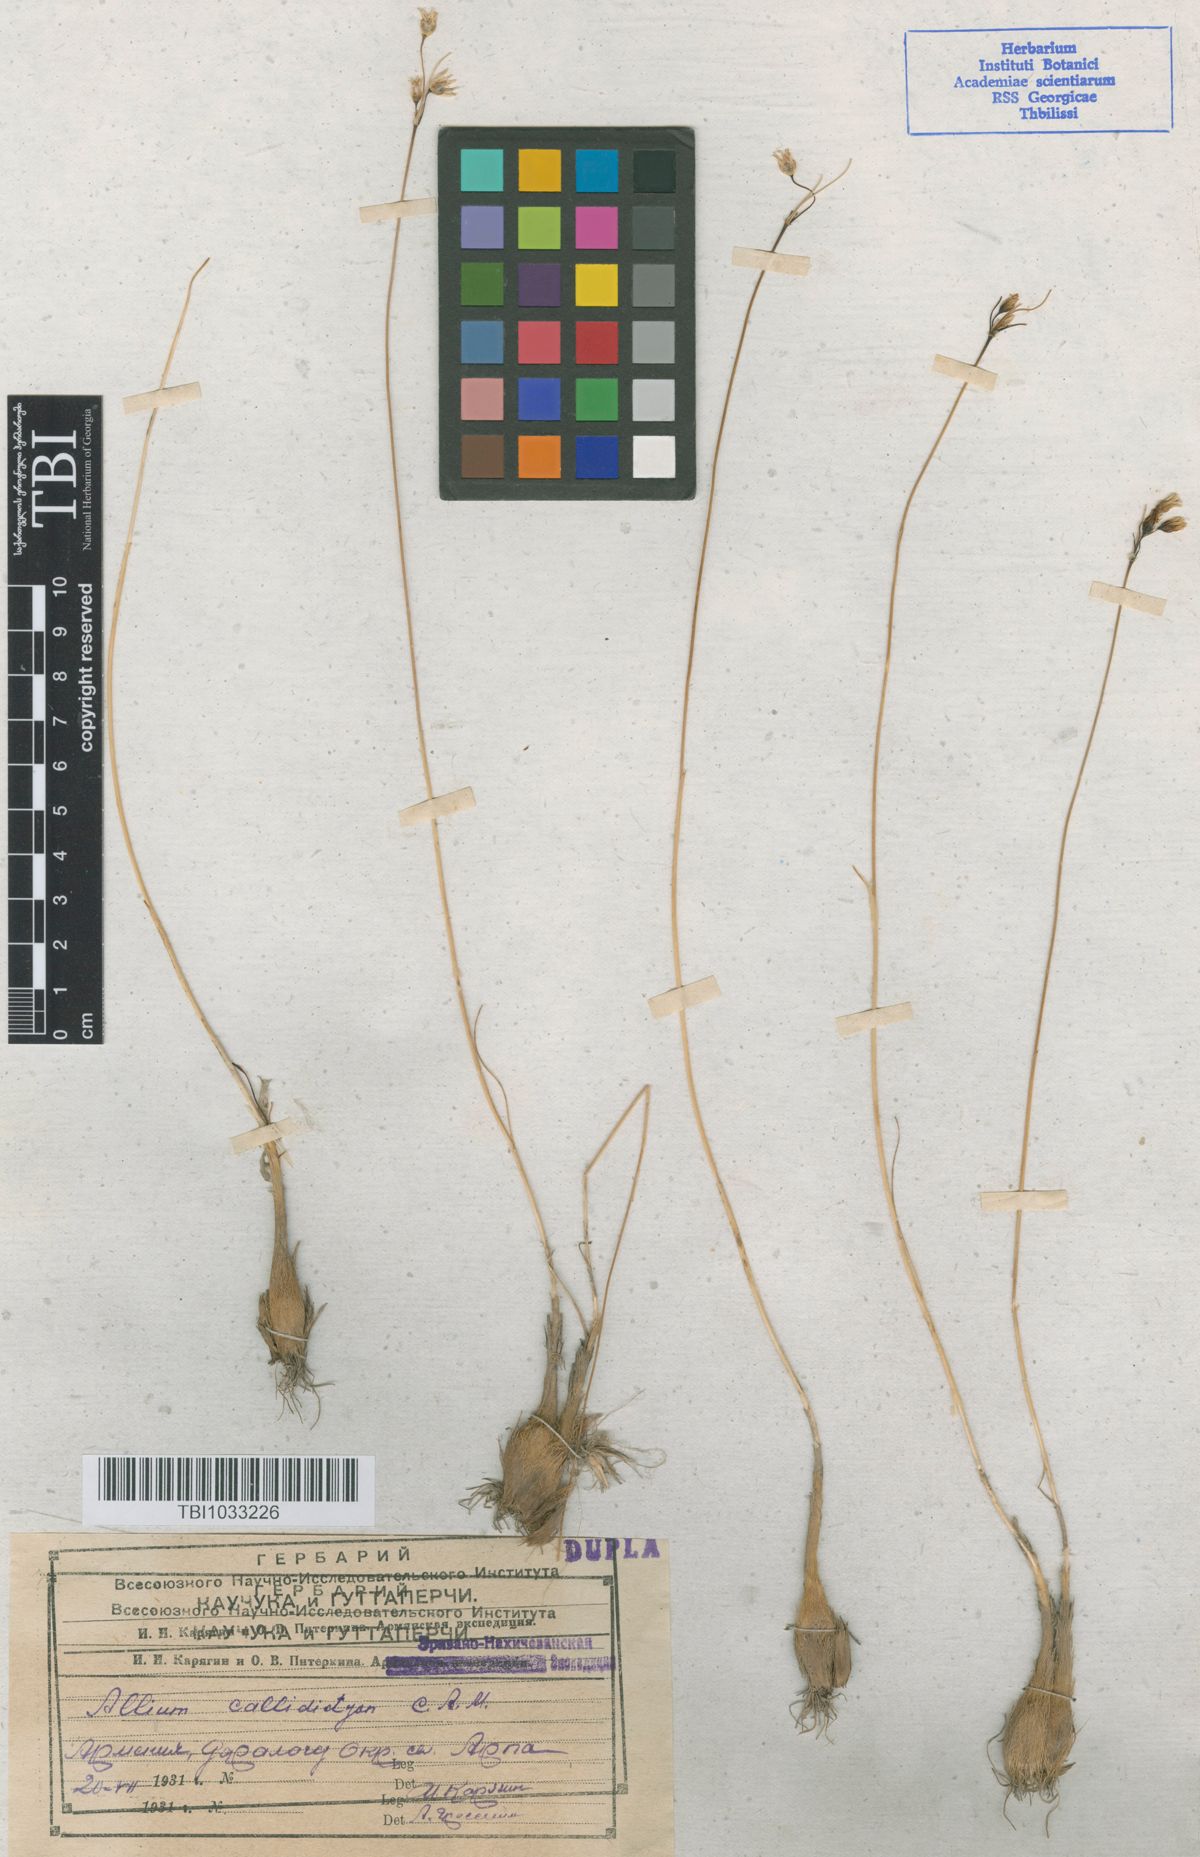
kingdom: Plantae
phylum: Tracheophyta
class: Liliopsida
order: Asparagales
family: Amaryllidaceae
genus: Allium
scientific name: Allium callidyction
